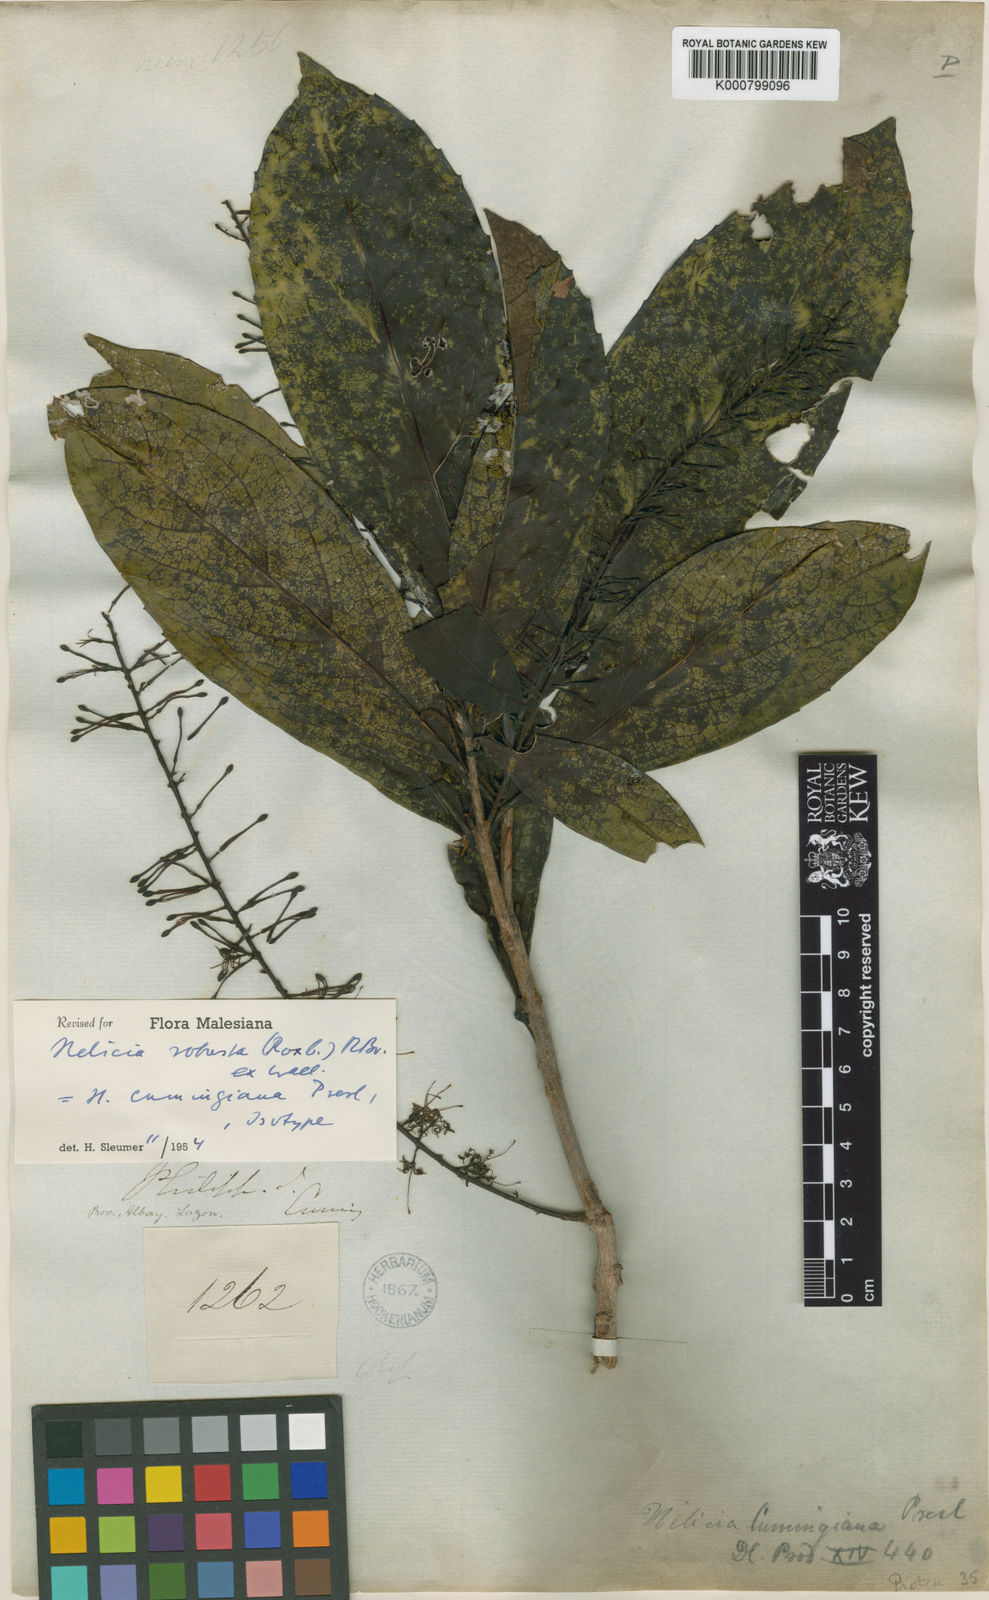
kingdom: Plantae
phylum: Tracheophyta
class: Magnoliopsida
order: Proteales
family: Proteaceae
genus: Helicia
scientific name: Helicia
